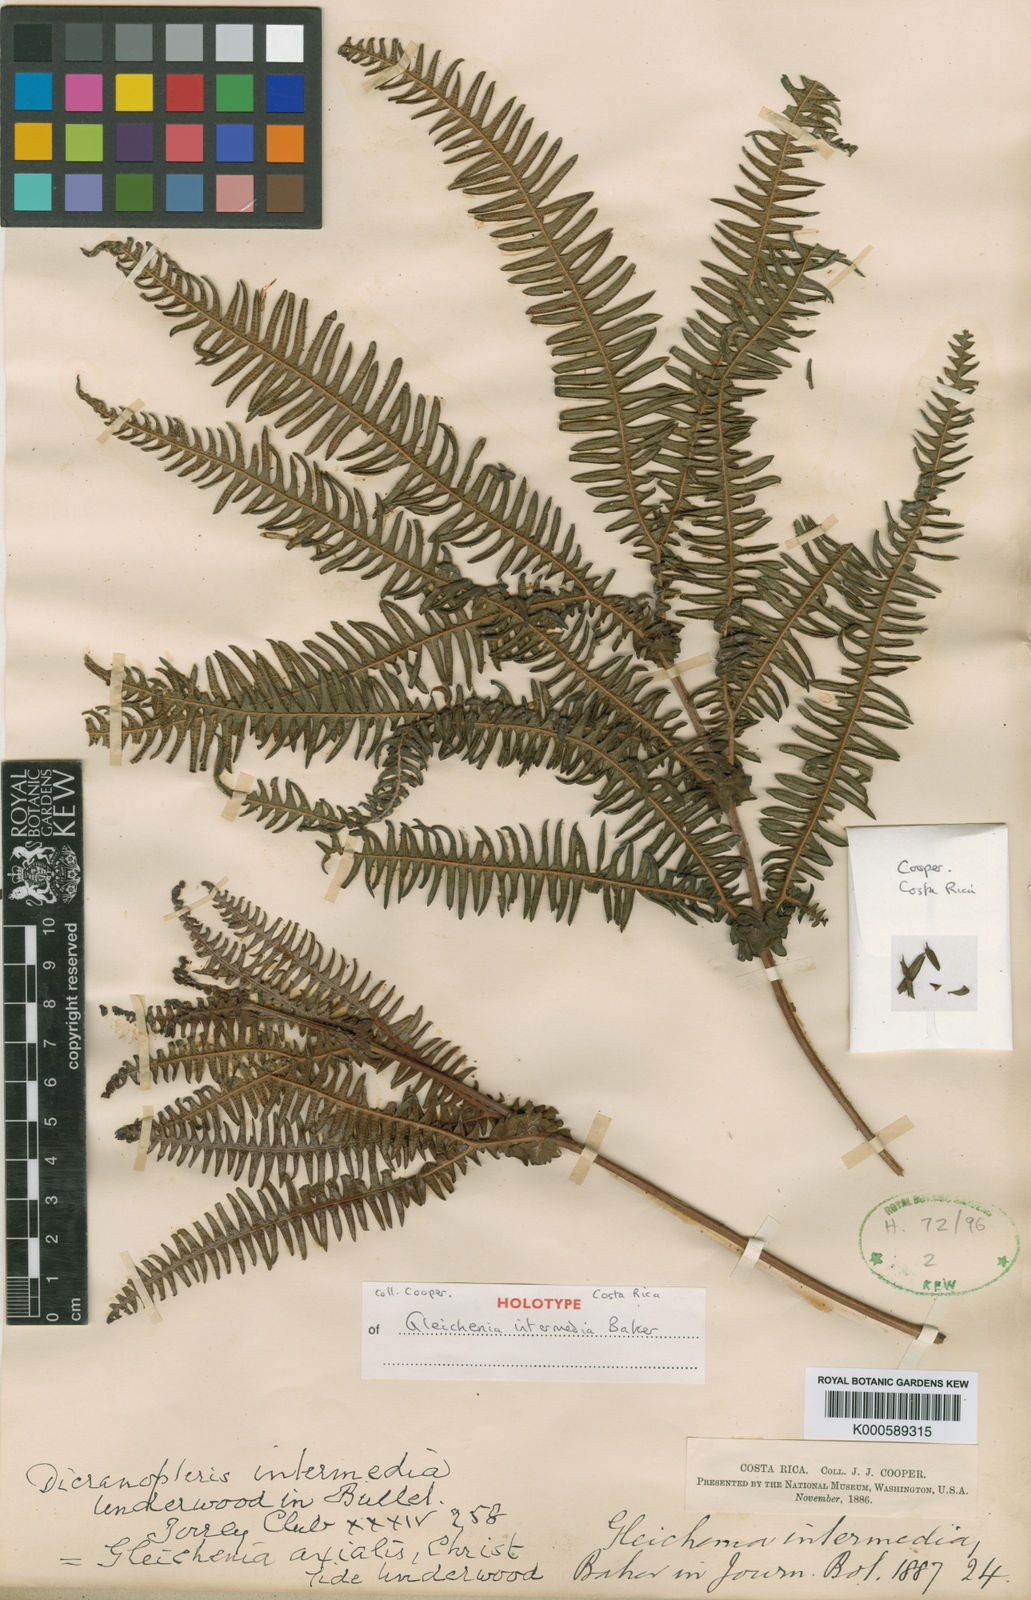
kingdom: Plantae
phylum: Tracheophyta
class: Polypodiopsida
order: Gleicheniales
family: Gleicheniaceae
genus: Sticherus
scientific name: Sticherus intermedius
